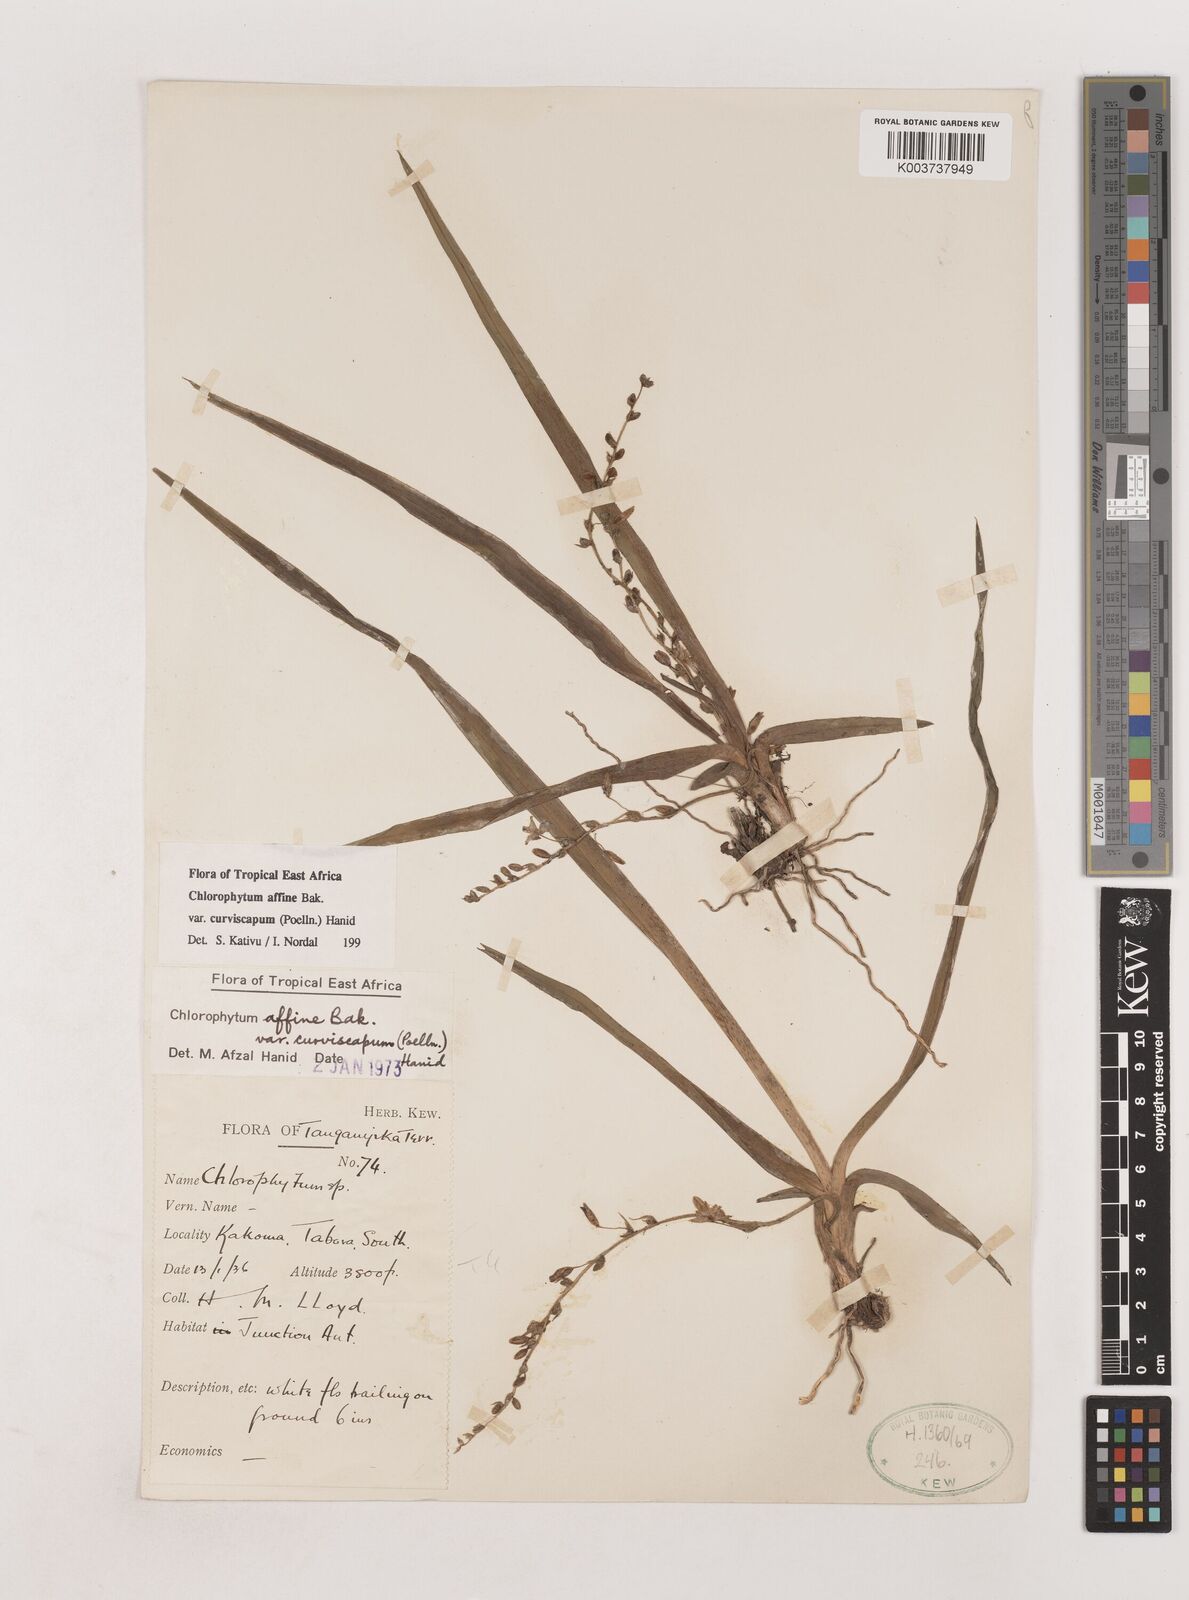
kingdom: Plantae
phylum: Tracheophyta
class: Liliopsida
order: Asparagales
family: Asparagaceae
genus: Chlorophytum
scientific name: Chlorophytum tordense
